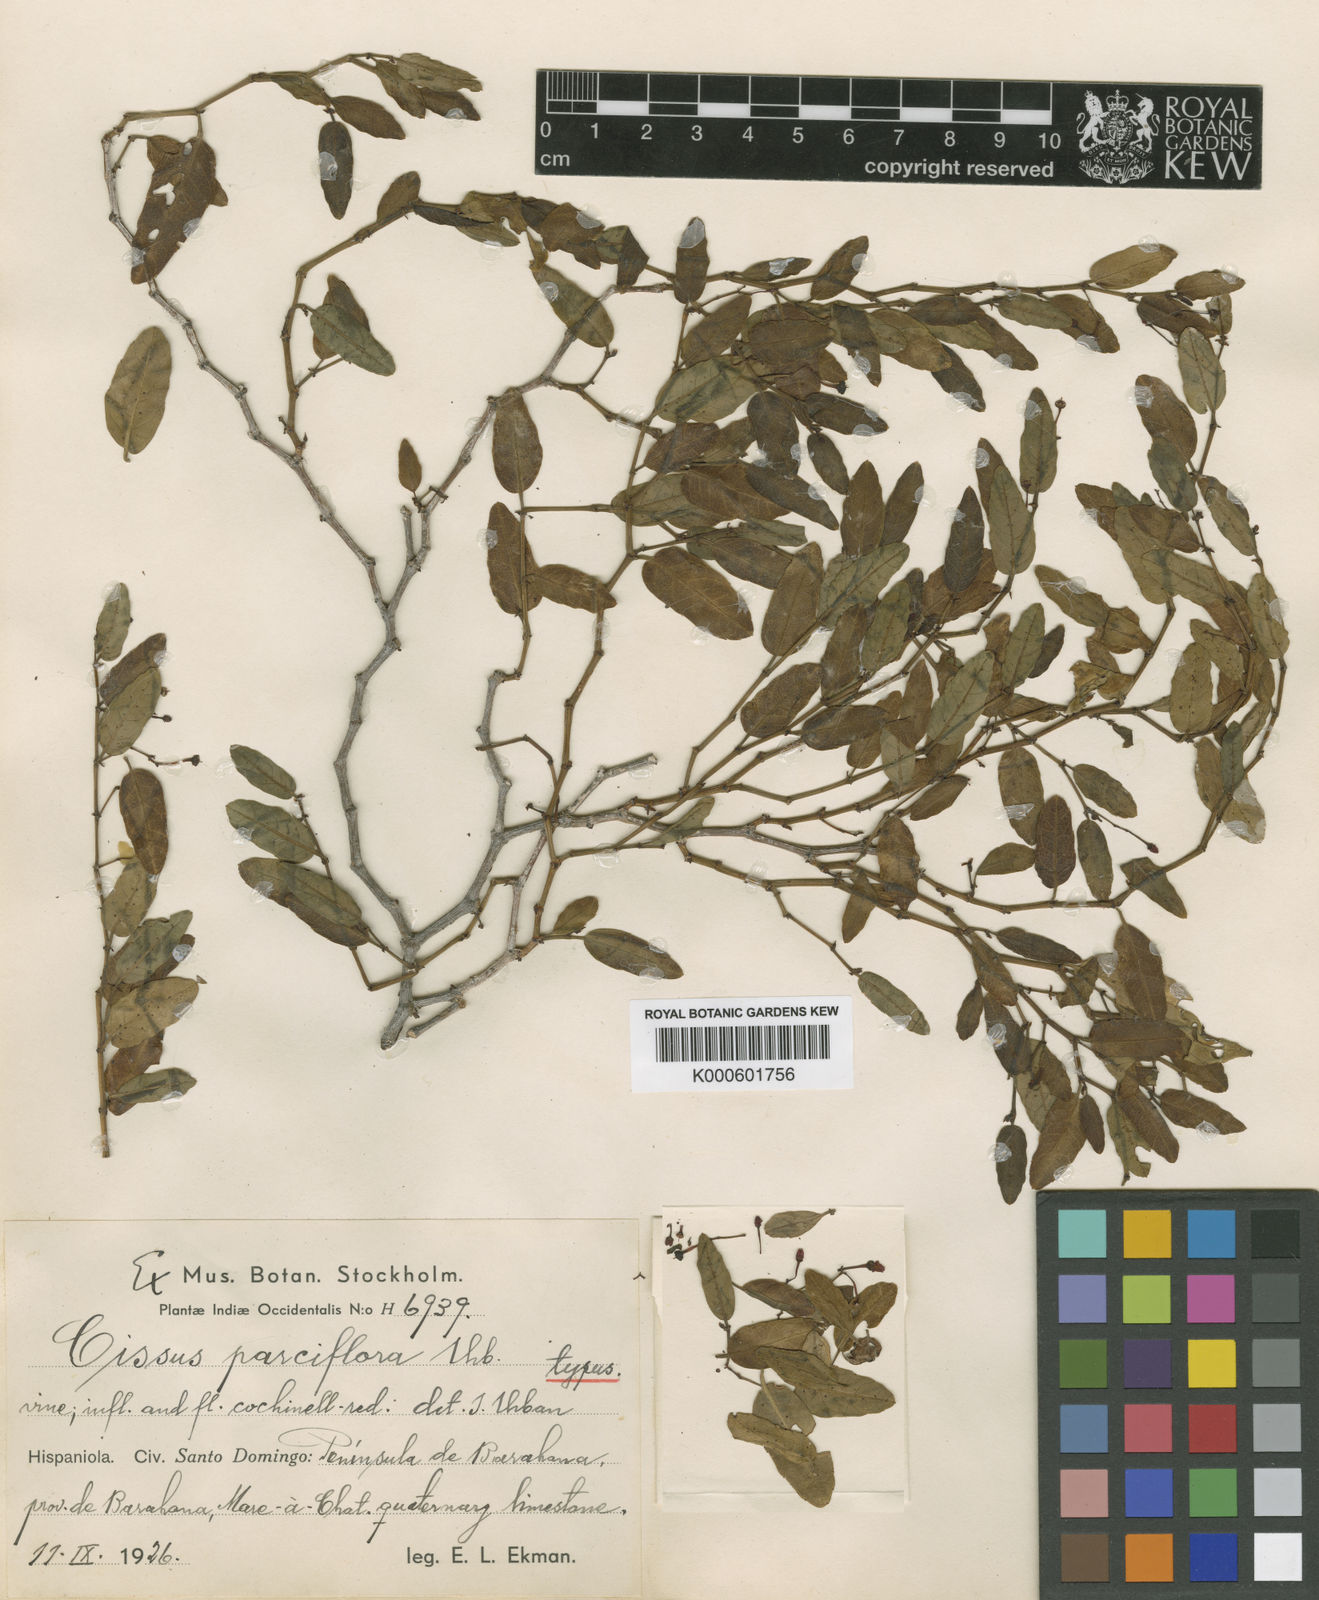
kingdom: Plantae
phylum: Tracheophyta
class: Magnoliopsida
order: Vitales
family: Vitaceae
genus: Cissus
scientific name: Cissus picardae
